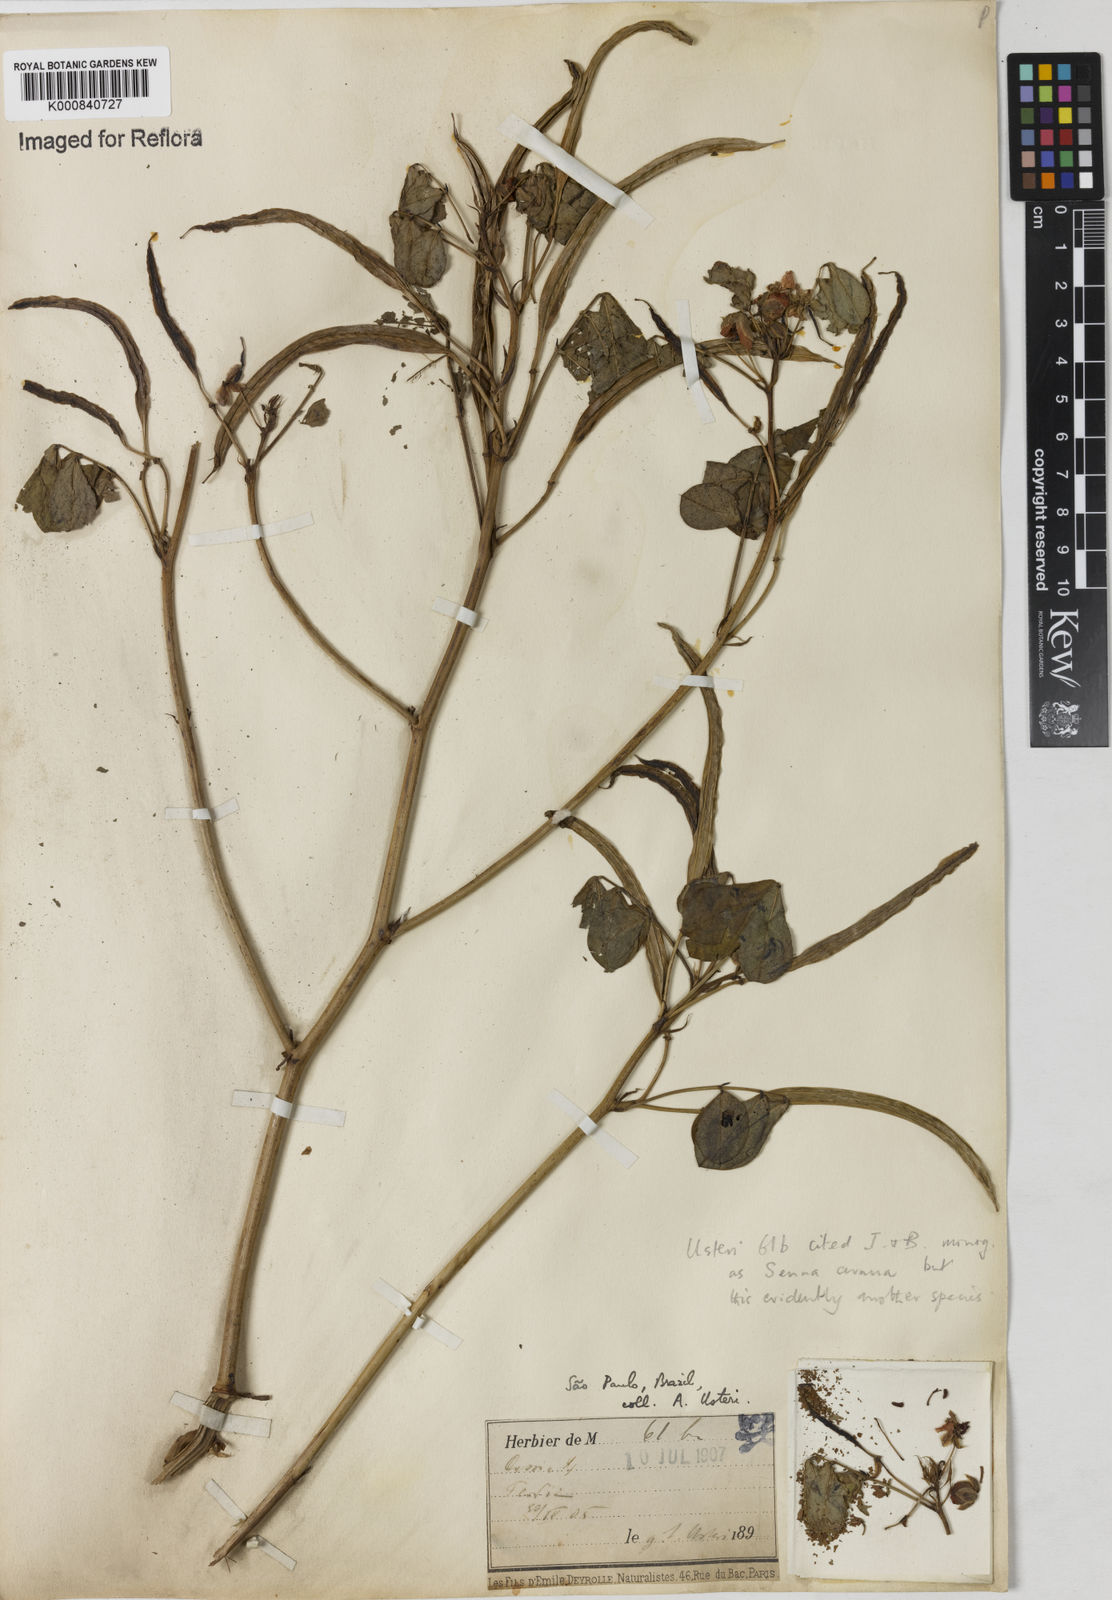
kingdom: Plantae
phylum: Tracheophyta
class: Magnoliopsida
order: Fabales
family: Fabaceae
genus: Senna
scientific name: Senna pentagonia
